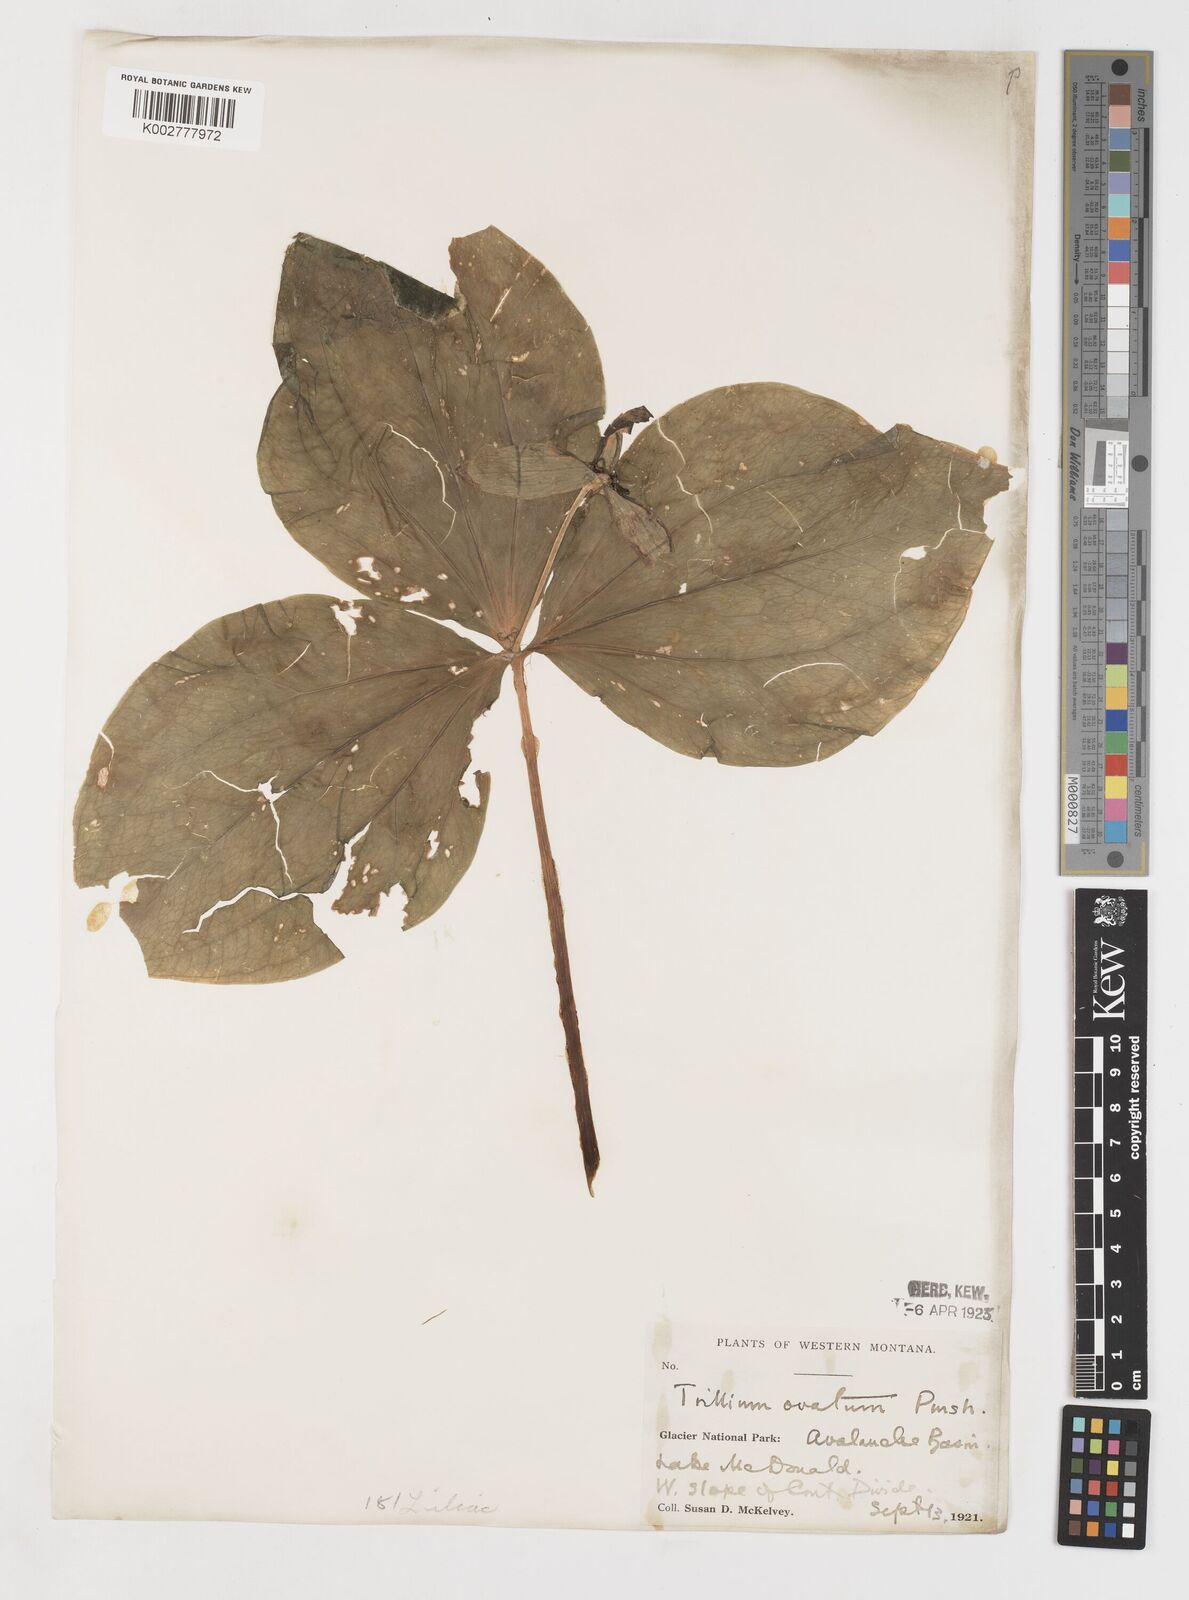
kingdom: Plantae
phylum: Tracheophyta
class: Liliopsida
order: Liliales
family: Melanthiaceae
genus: Trillium
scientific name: Trillium ovatum
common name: Pacific trillium
